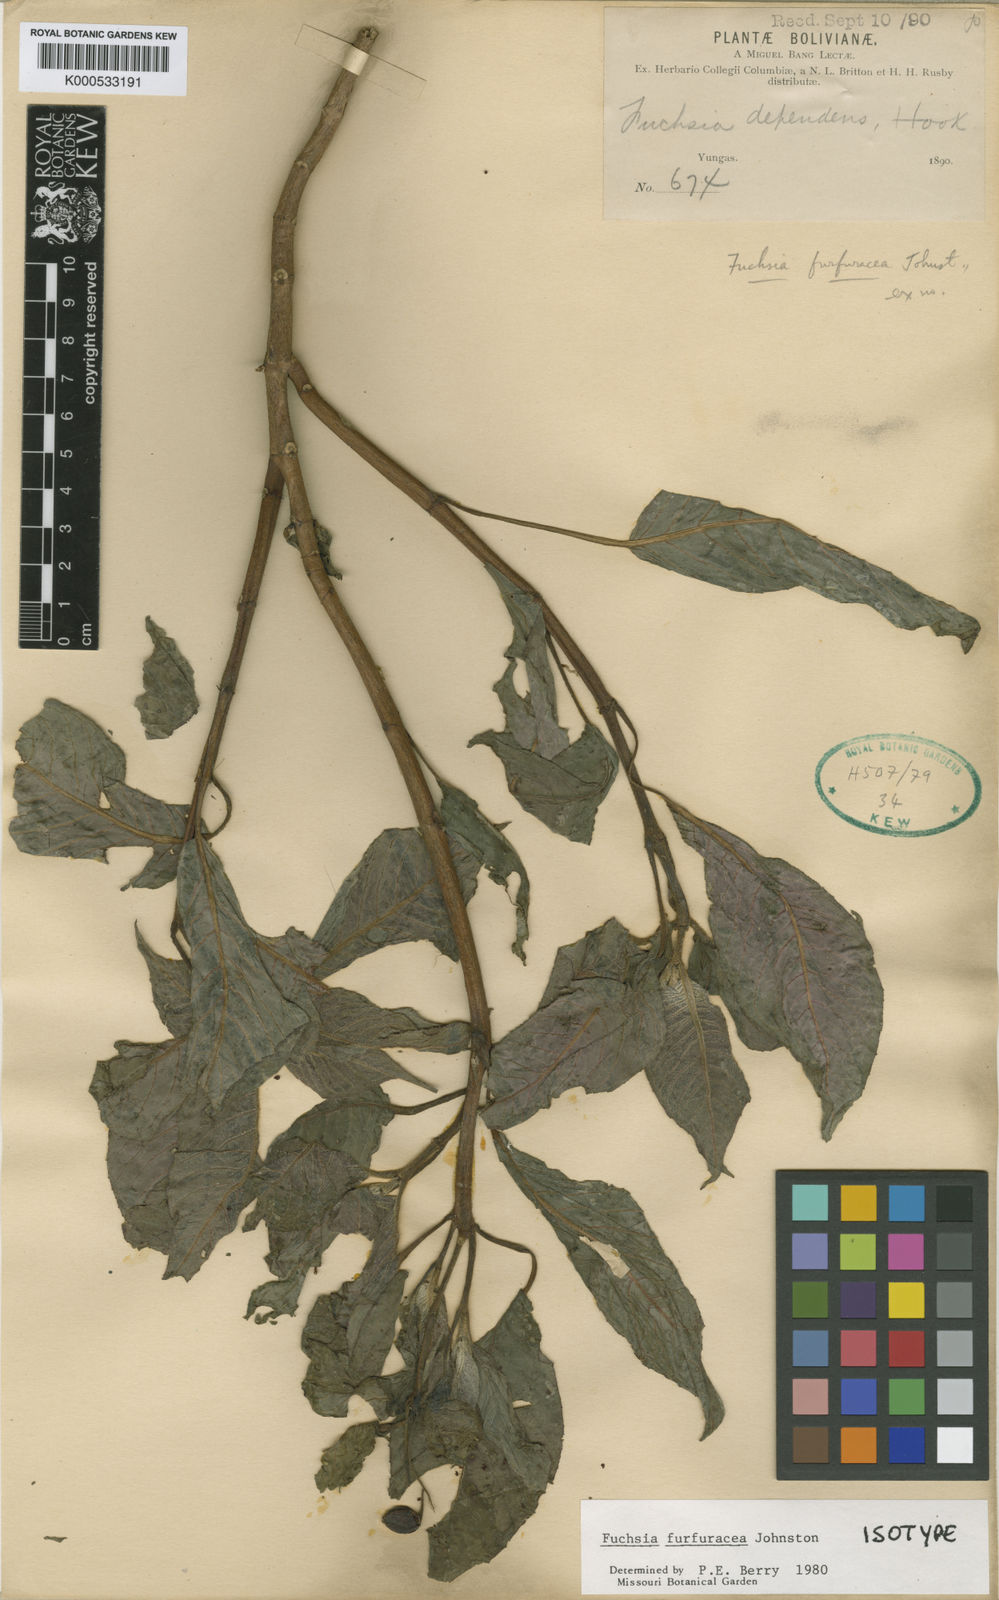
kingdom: Plantae
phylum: Tracheophyta
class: Magnoliopsida
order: Myrtales
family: Onagraceae
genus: Fuchsia
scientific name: Fuchsia furfuracea
